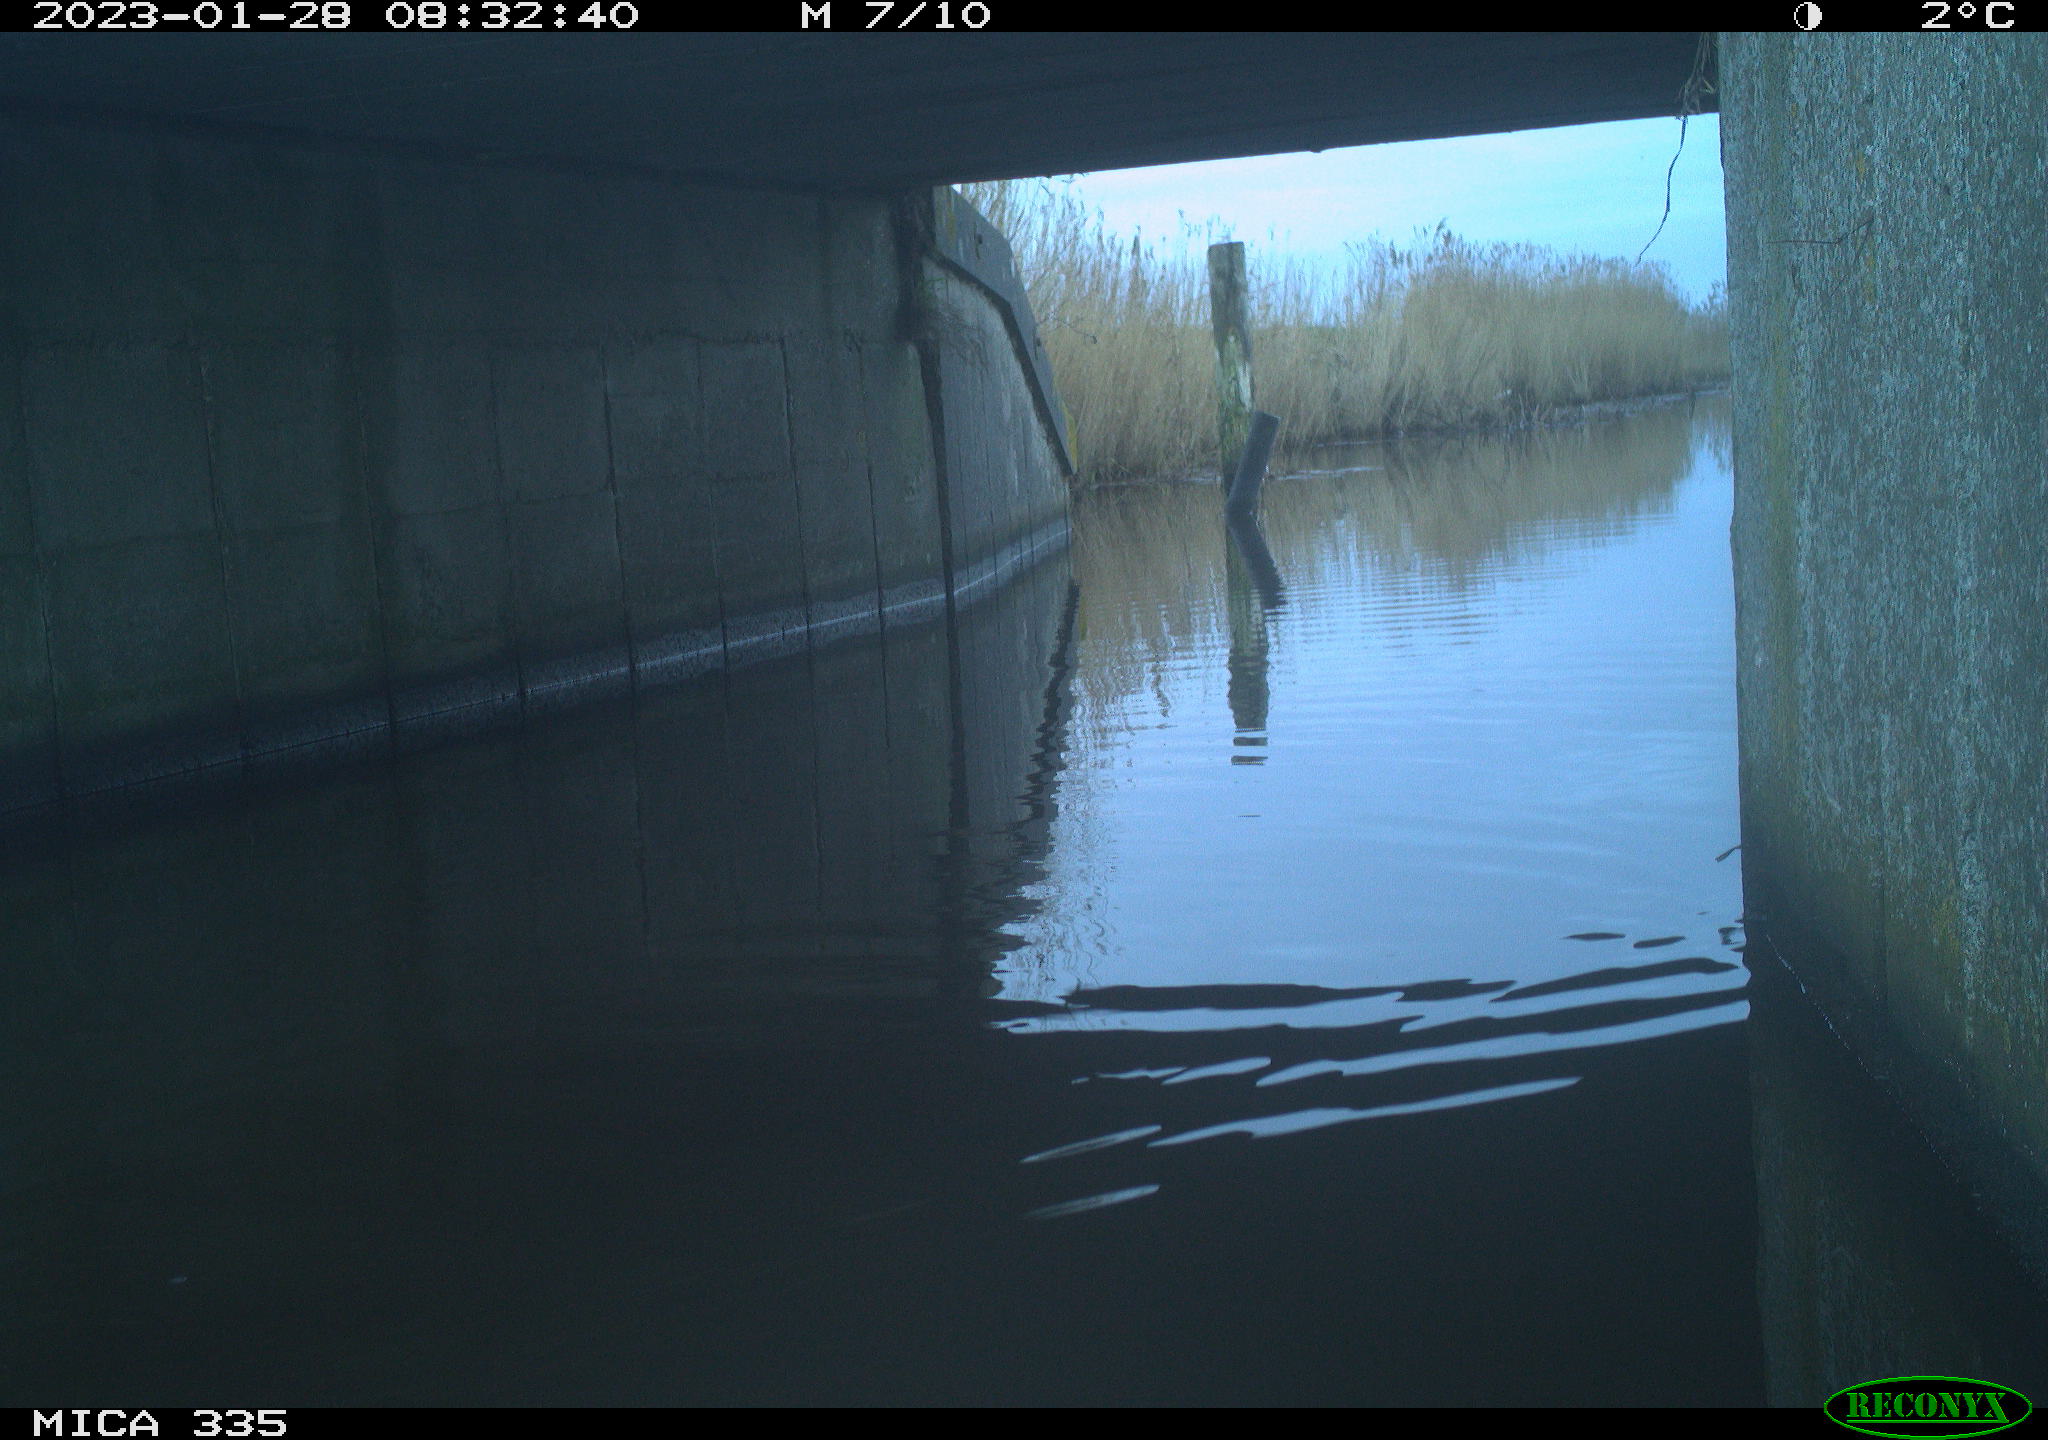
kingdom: Animalia
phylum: Chordata
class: Aves
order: Anseriformes
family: Anatidae
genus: Anas
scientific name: Anas
